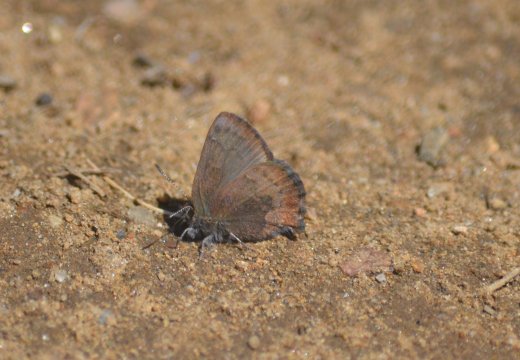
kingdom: Animalia
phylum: Arthropoda
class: Insecta
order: Lepidoptera
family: Lycaenidae
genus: Incisalia
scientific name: Incisalia irioides
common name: Brown Elfin
